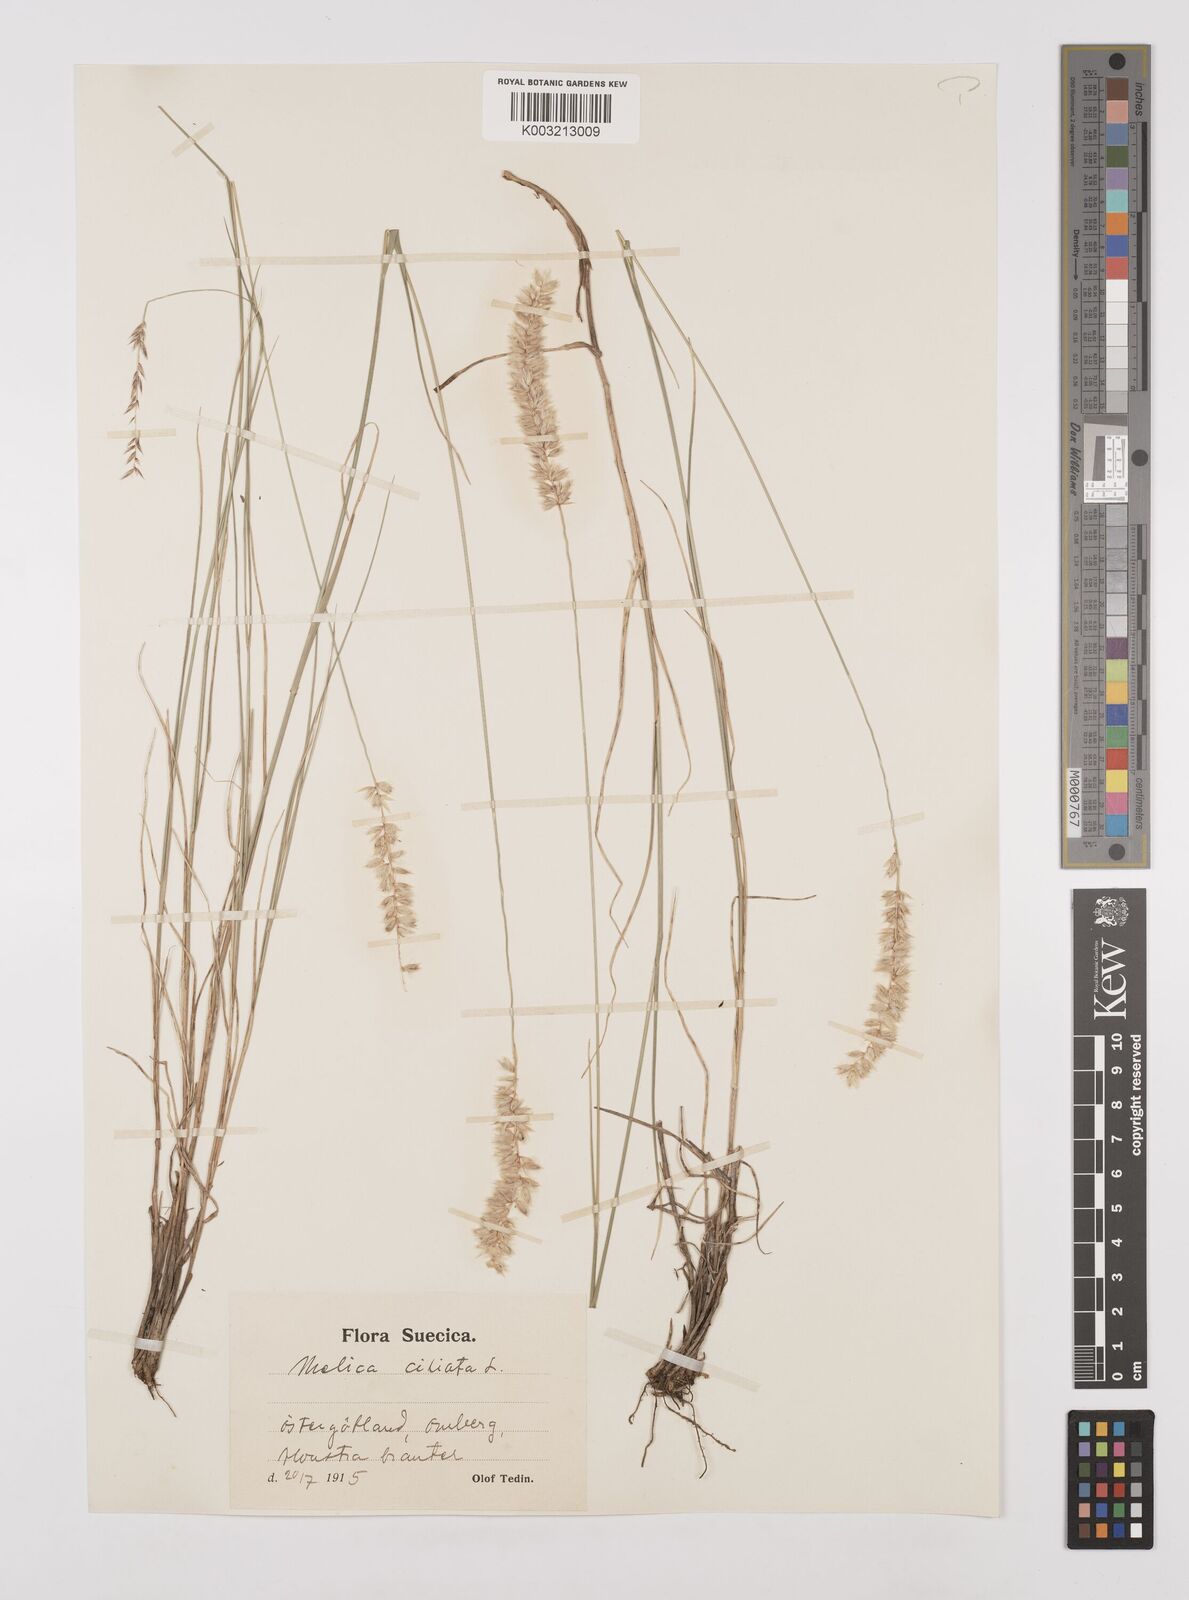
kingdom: Plantae
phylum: Tracheophyta
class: Liliopsida
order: Poales
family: Poaceae
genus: Melica
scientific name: Melica ciliata
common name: Hairy melicgrass
